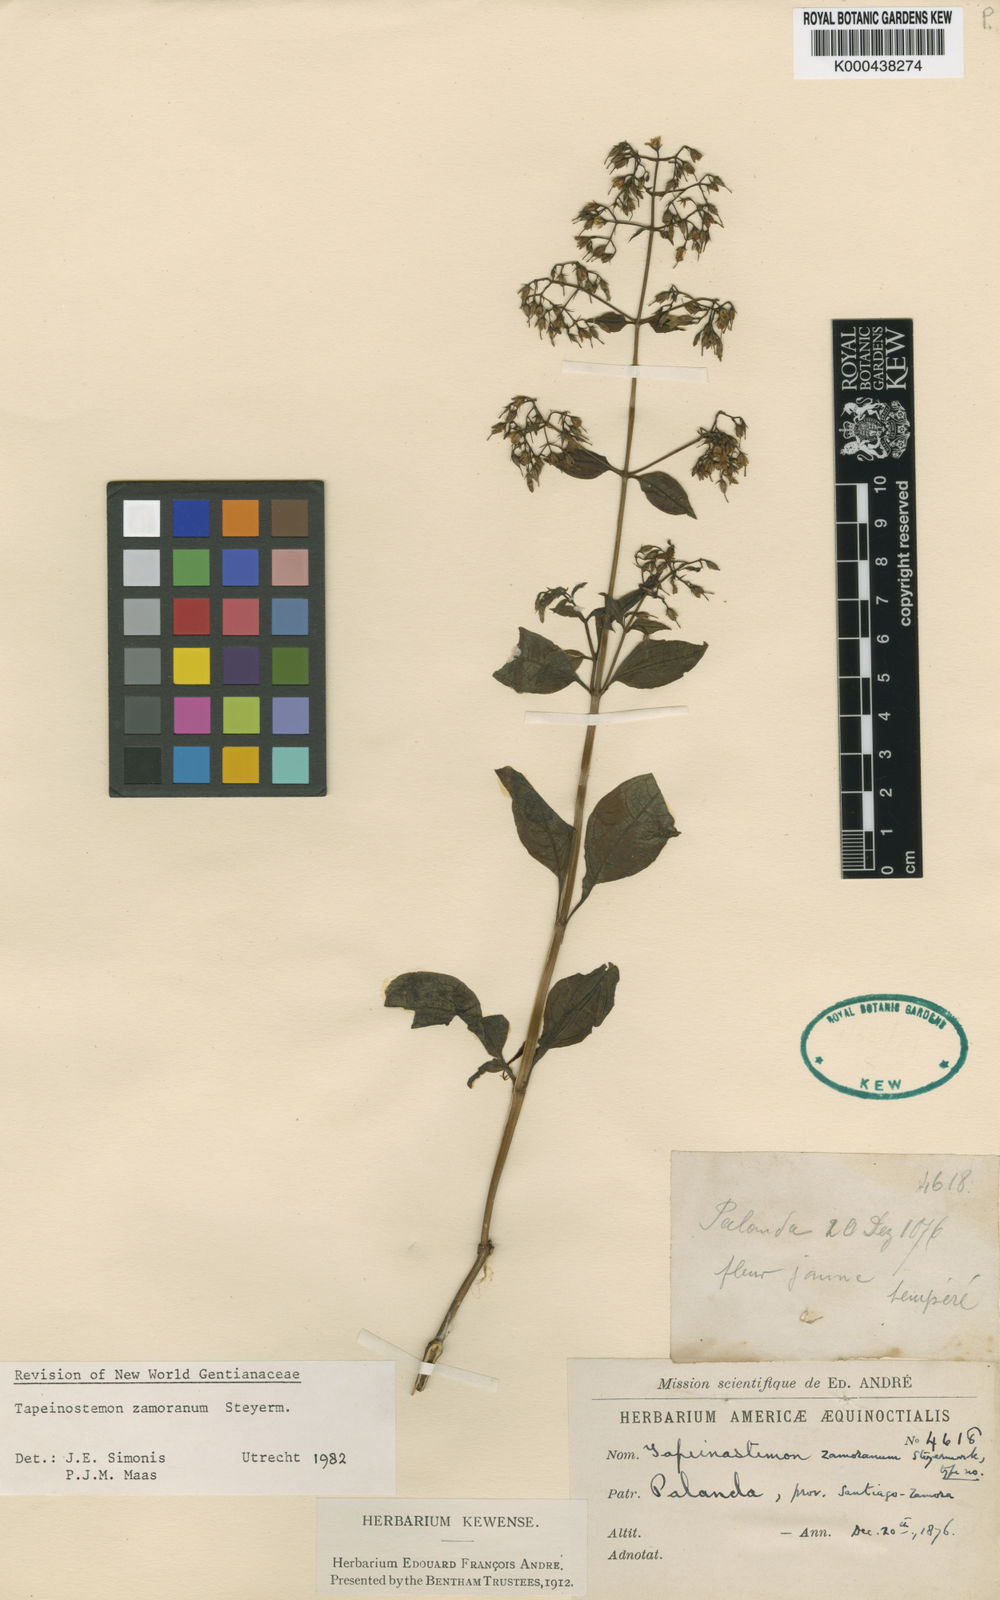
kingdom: Plantae
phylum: Tracheophyta
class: Magnoliopsida
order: Gentianales
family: Gentianaceae
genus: Tapeinostemon
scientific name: Tapeinostemon zamoranus
